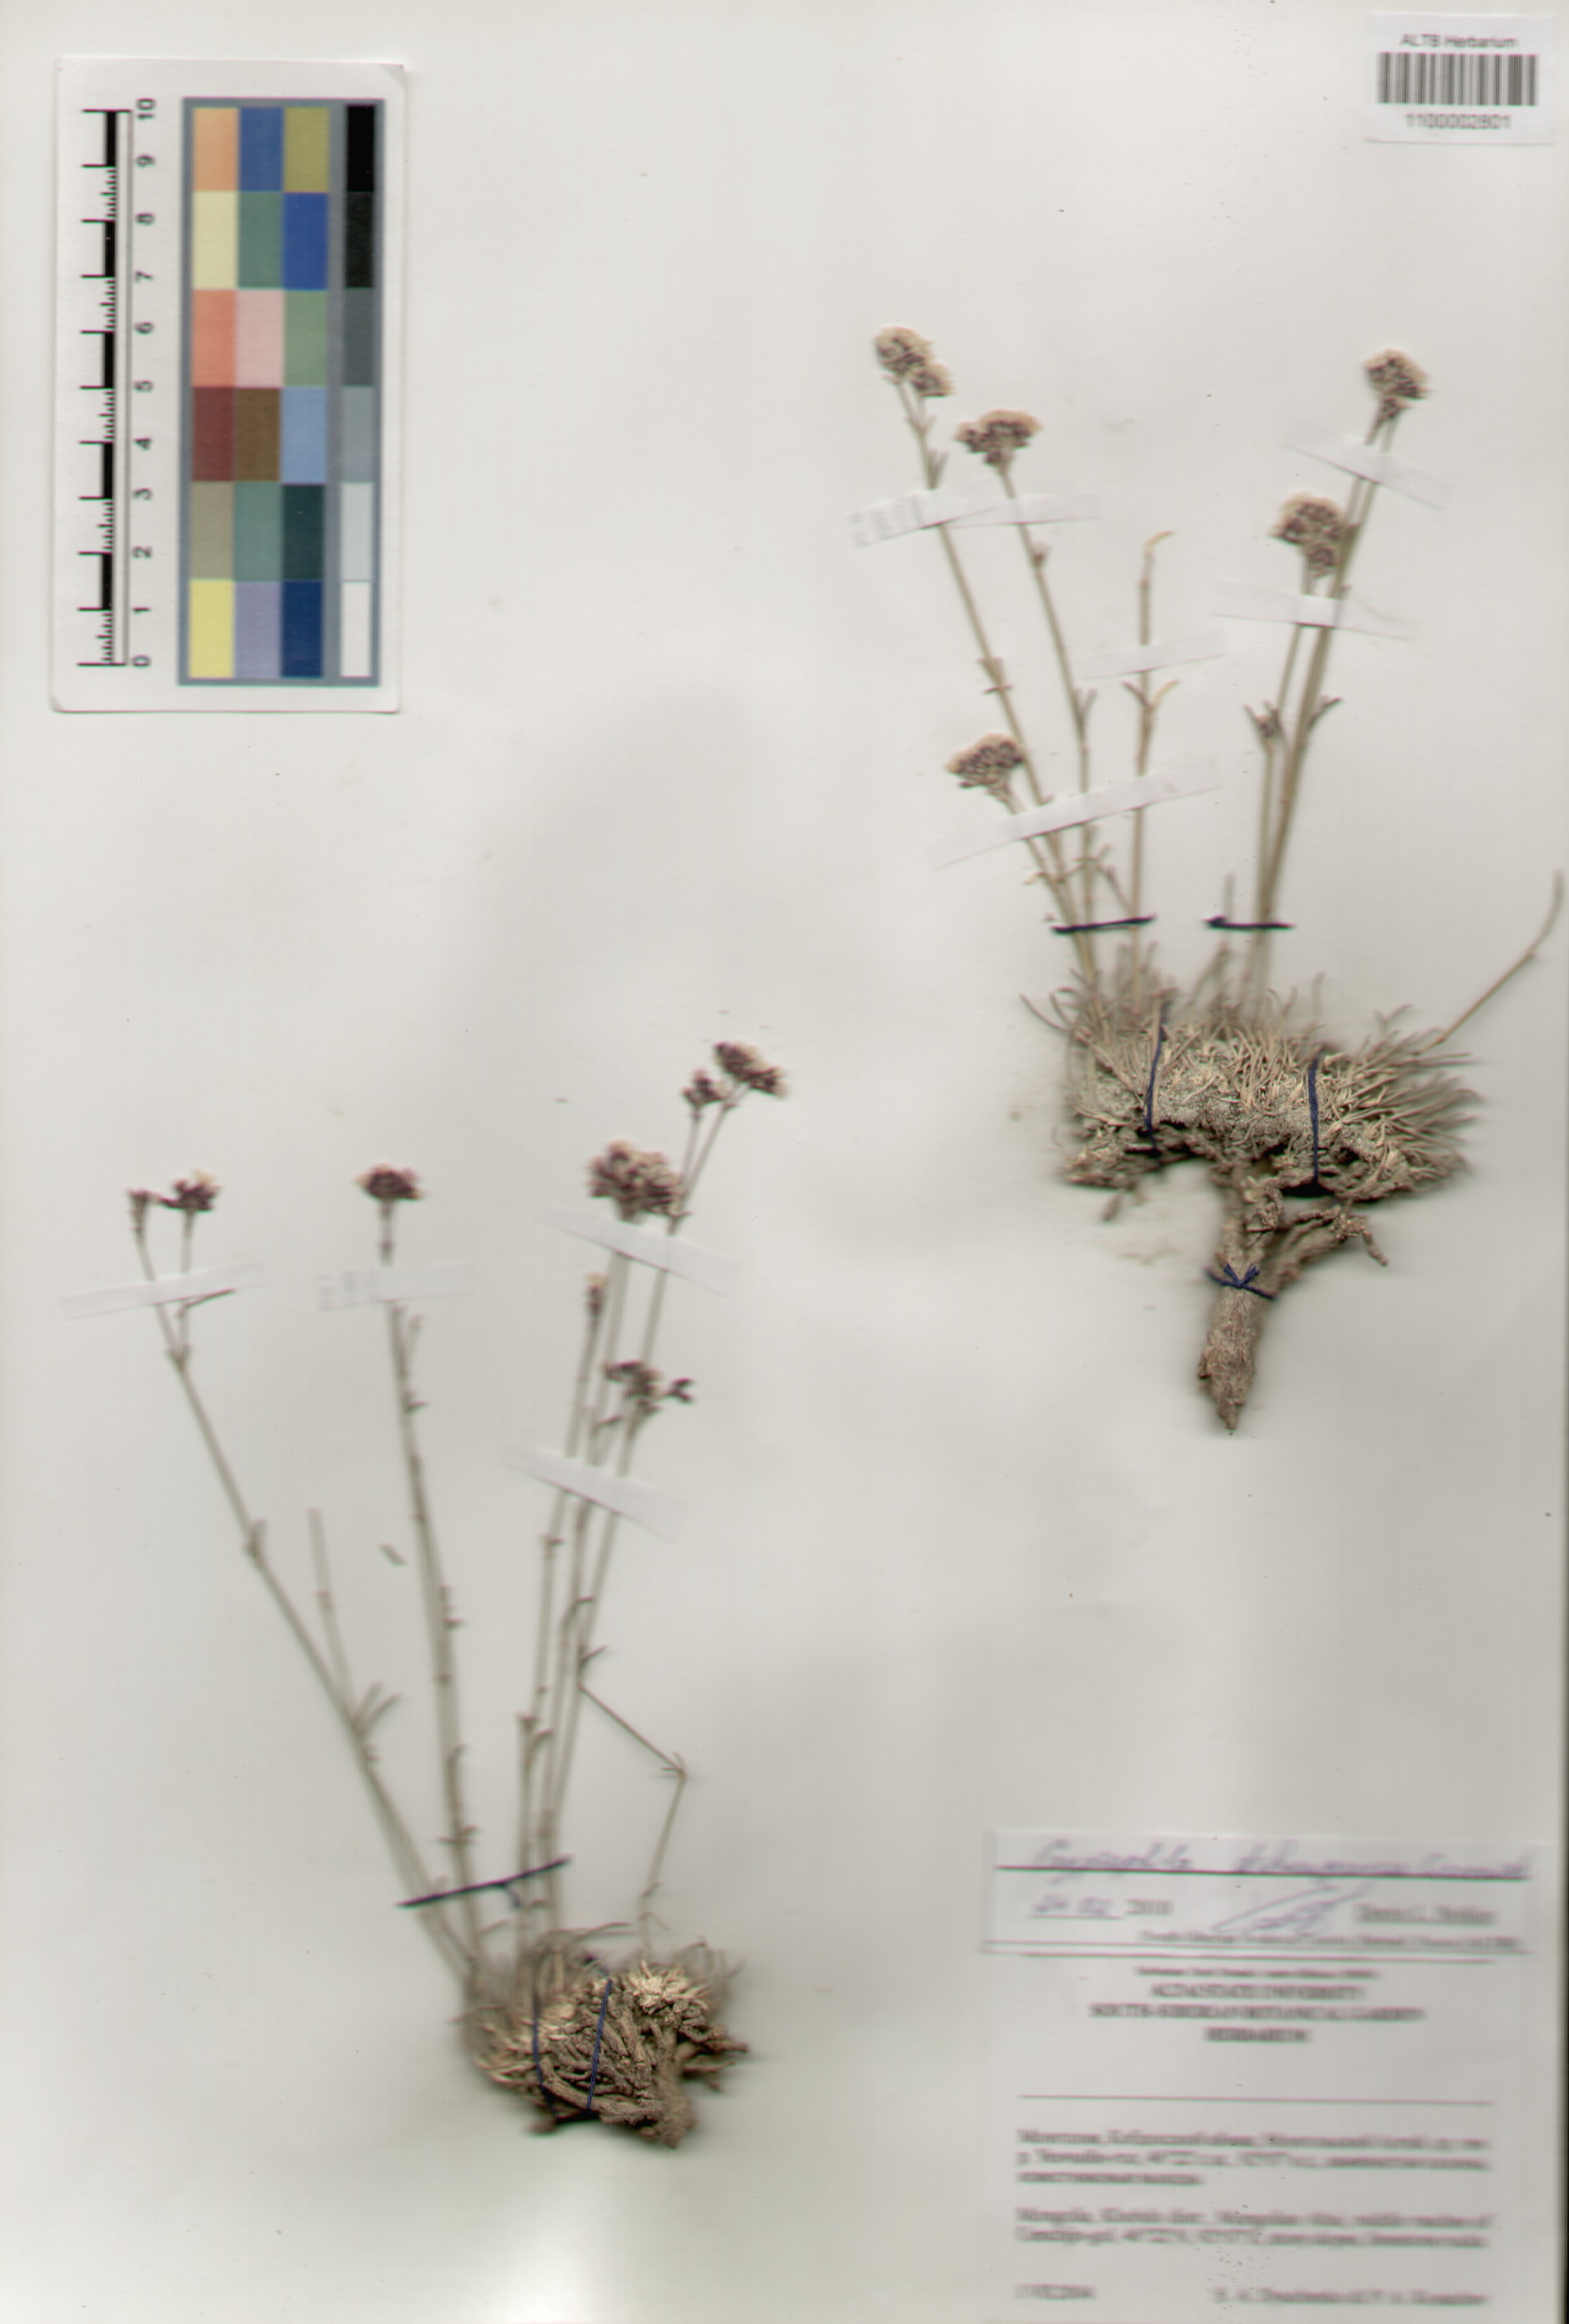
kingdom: Plantae
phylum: Tracheophyta
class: Magnoliopsida
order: Caryophyllales
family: Caryophyllaceae
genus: Gypsophila
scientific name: Gypsophila capituliflora
